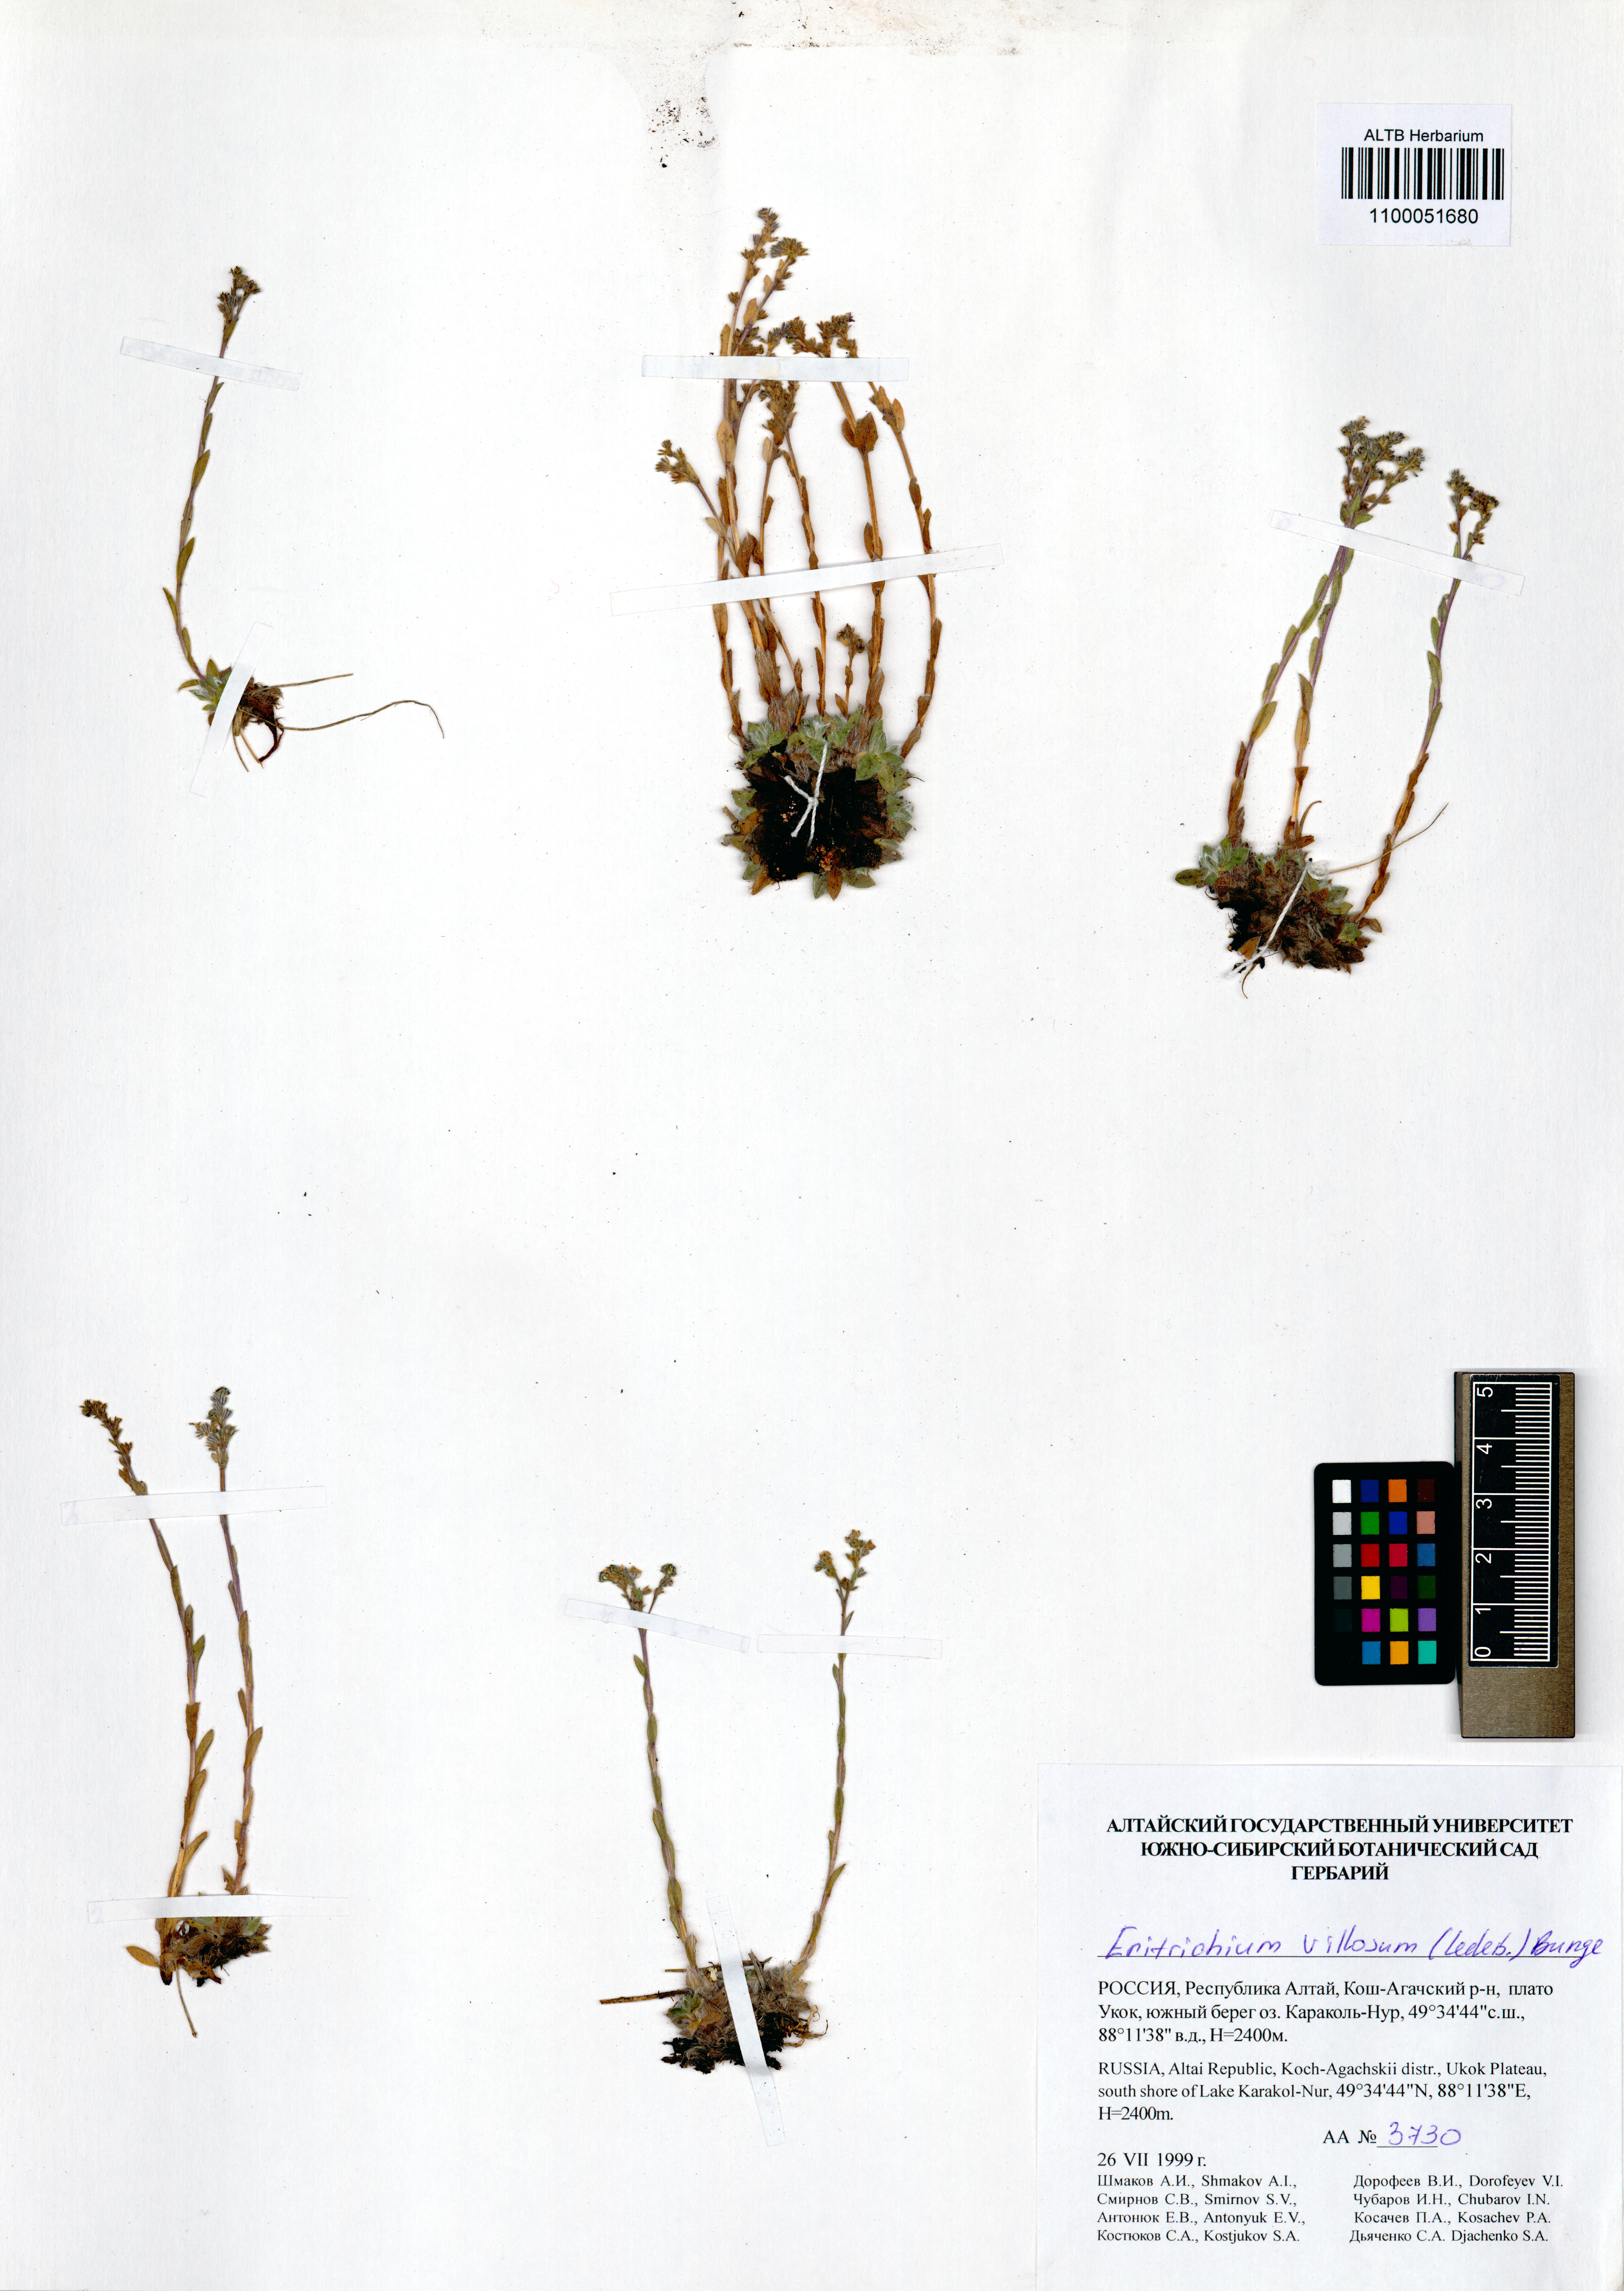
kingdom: Plantae
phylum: Tracheophyta
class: Magnoliopsida
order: Boraginales
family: Boraginaceae
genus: Eritrichium
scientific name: Eritrichium villosum
